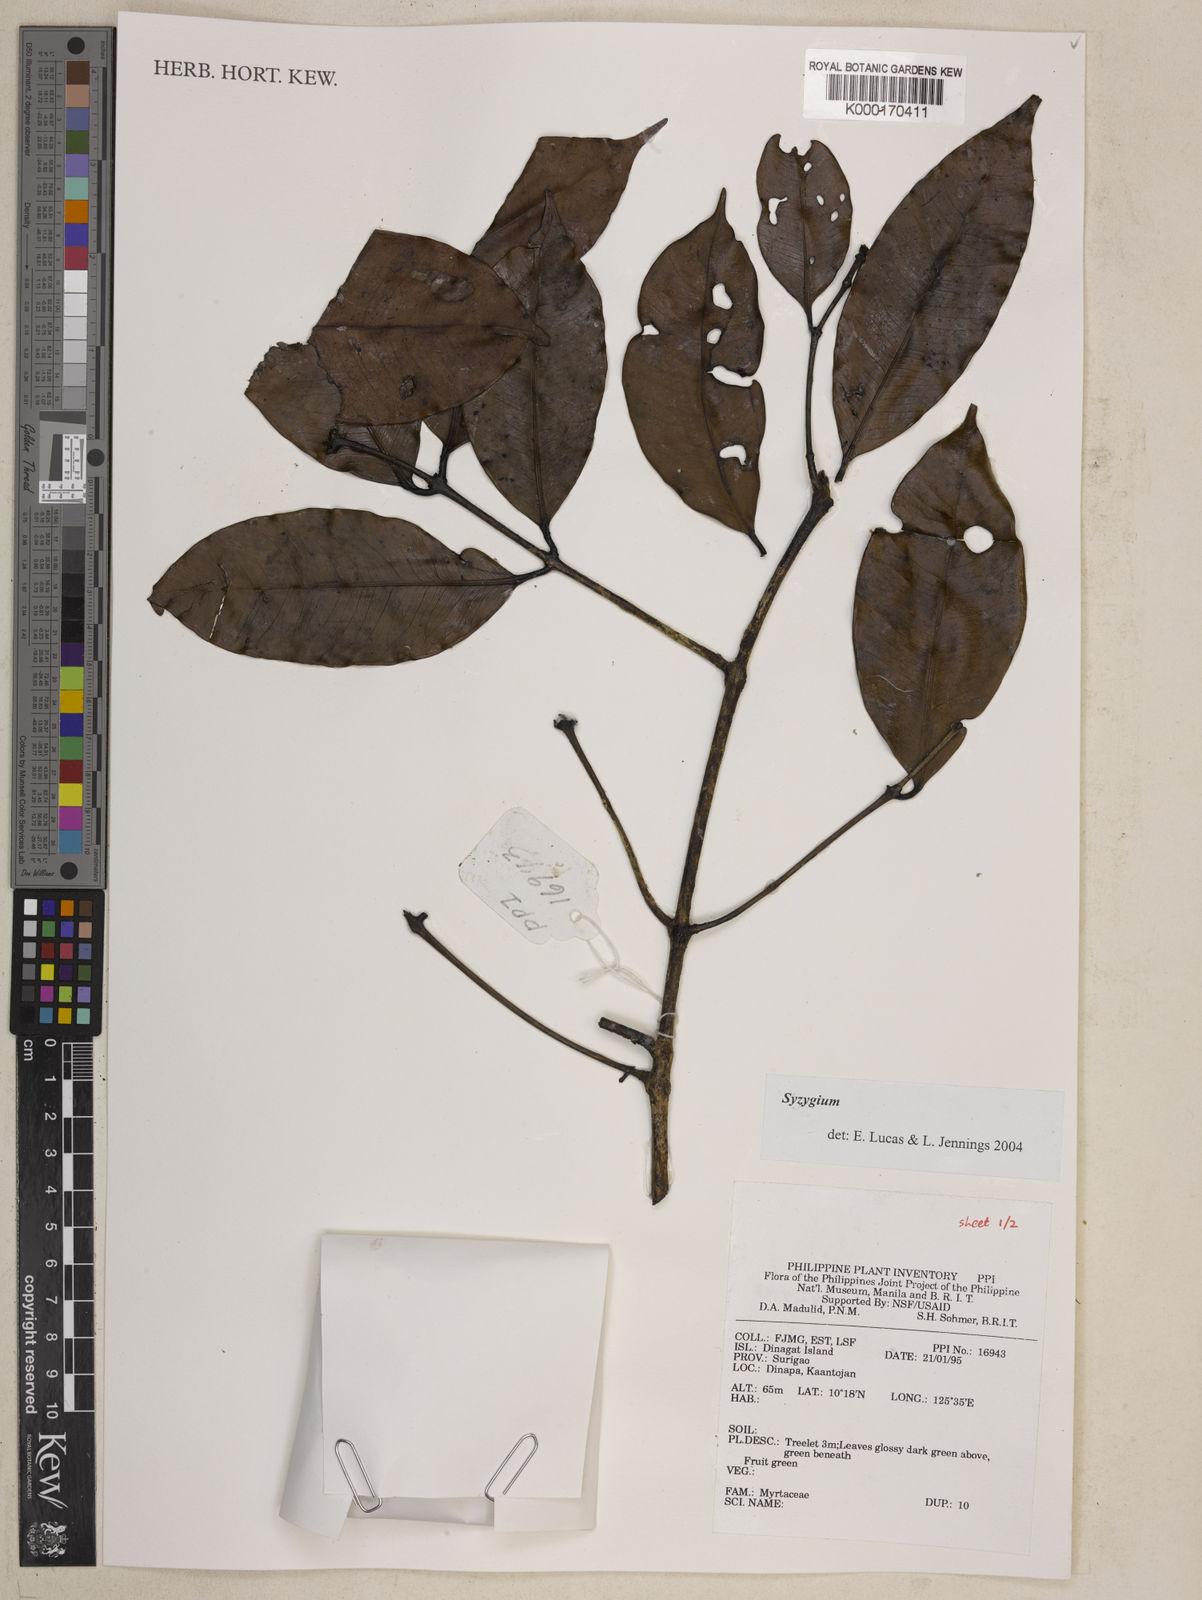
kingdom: Plantae
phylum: Tracheophyta
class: Magnoliopsida
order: Myrtales
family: Myrtaceae
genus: Syzygium
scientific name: Syzygium
